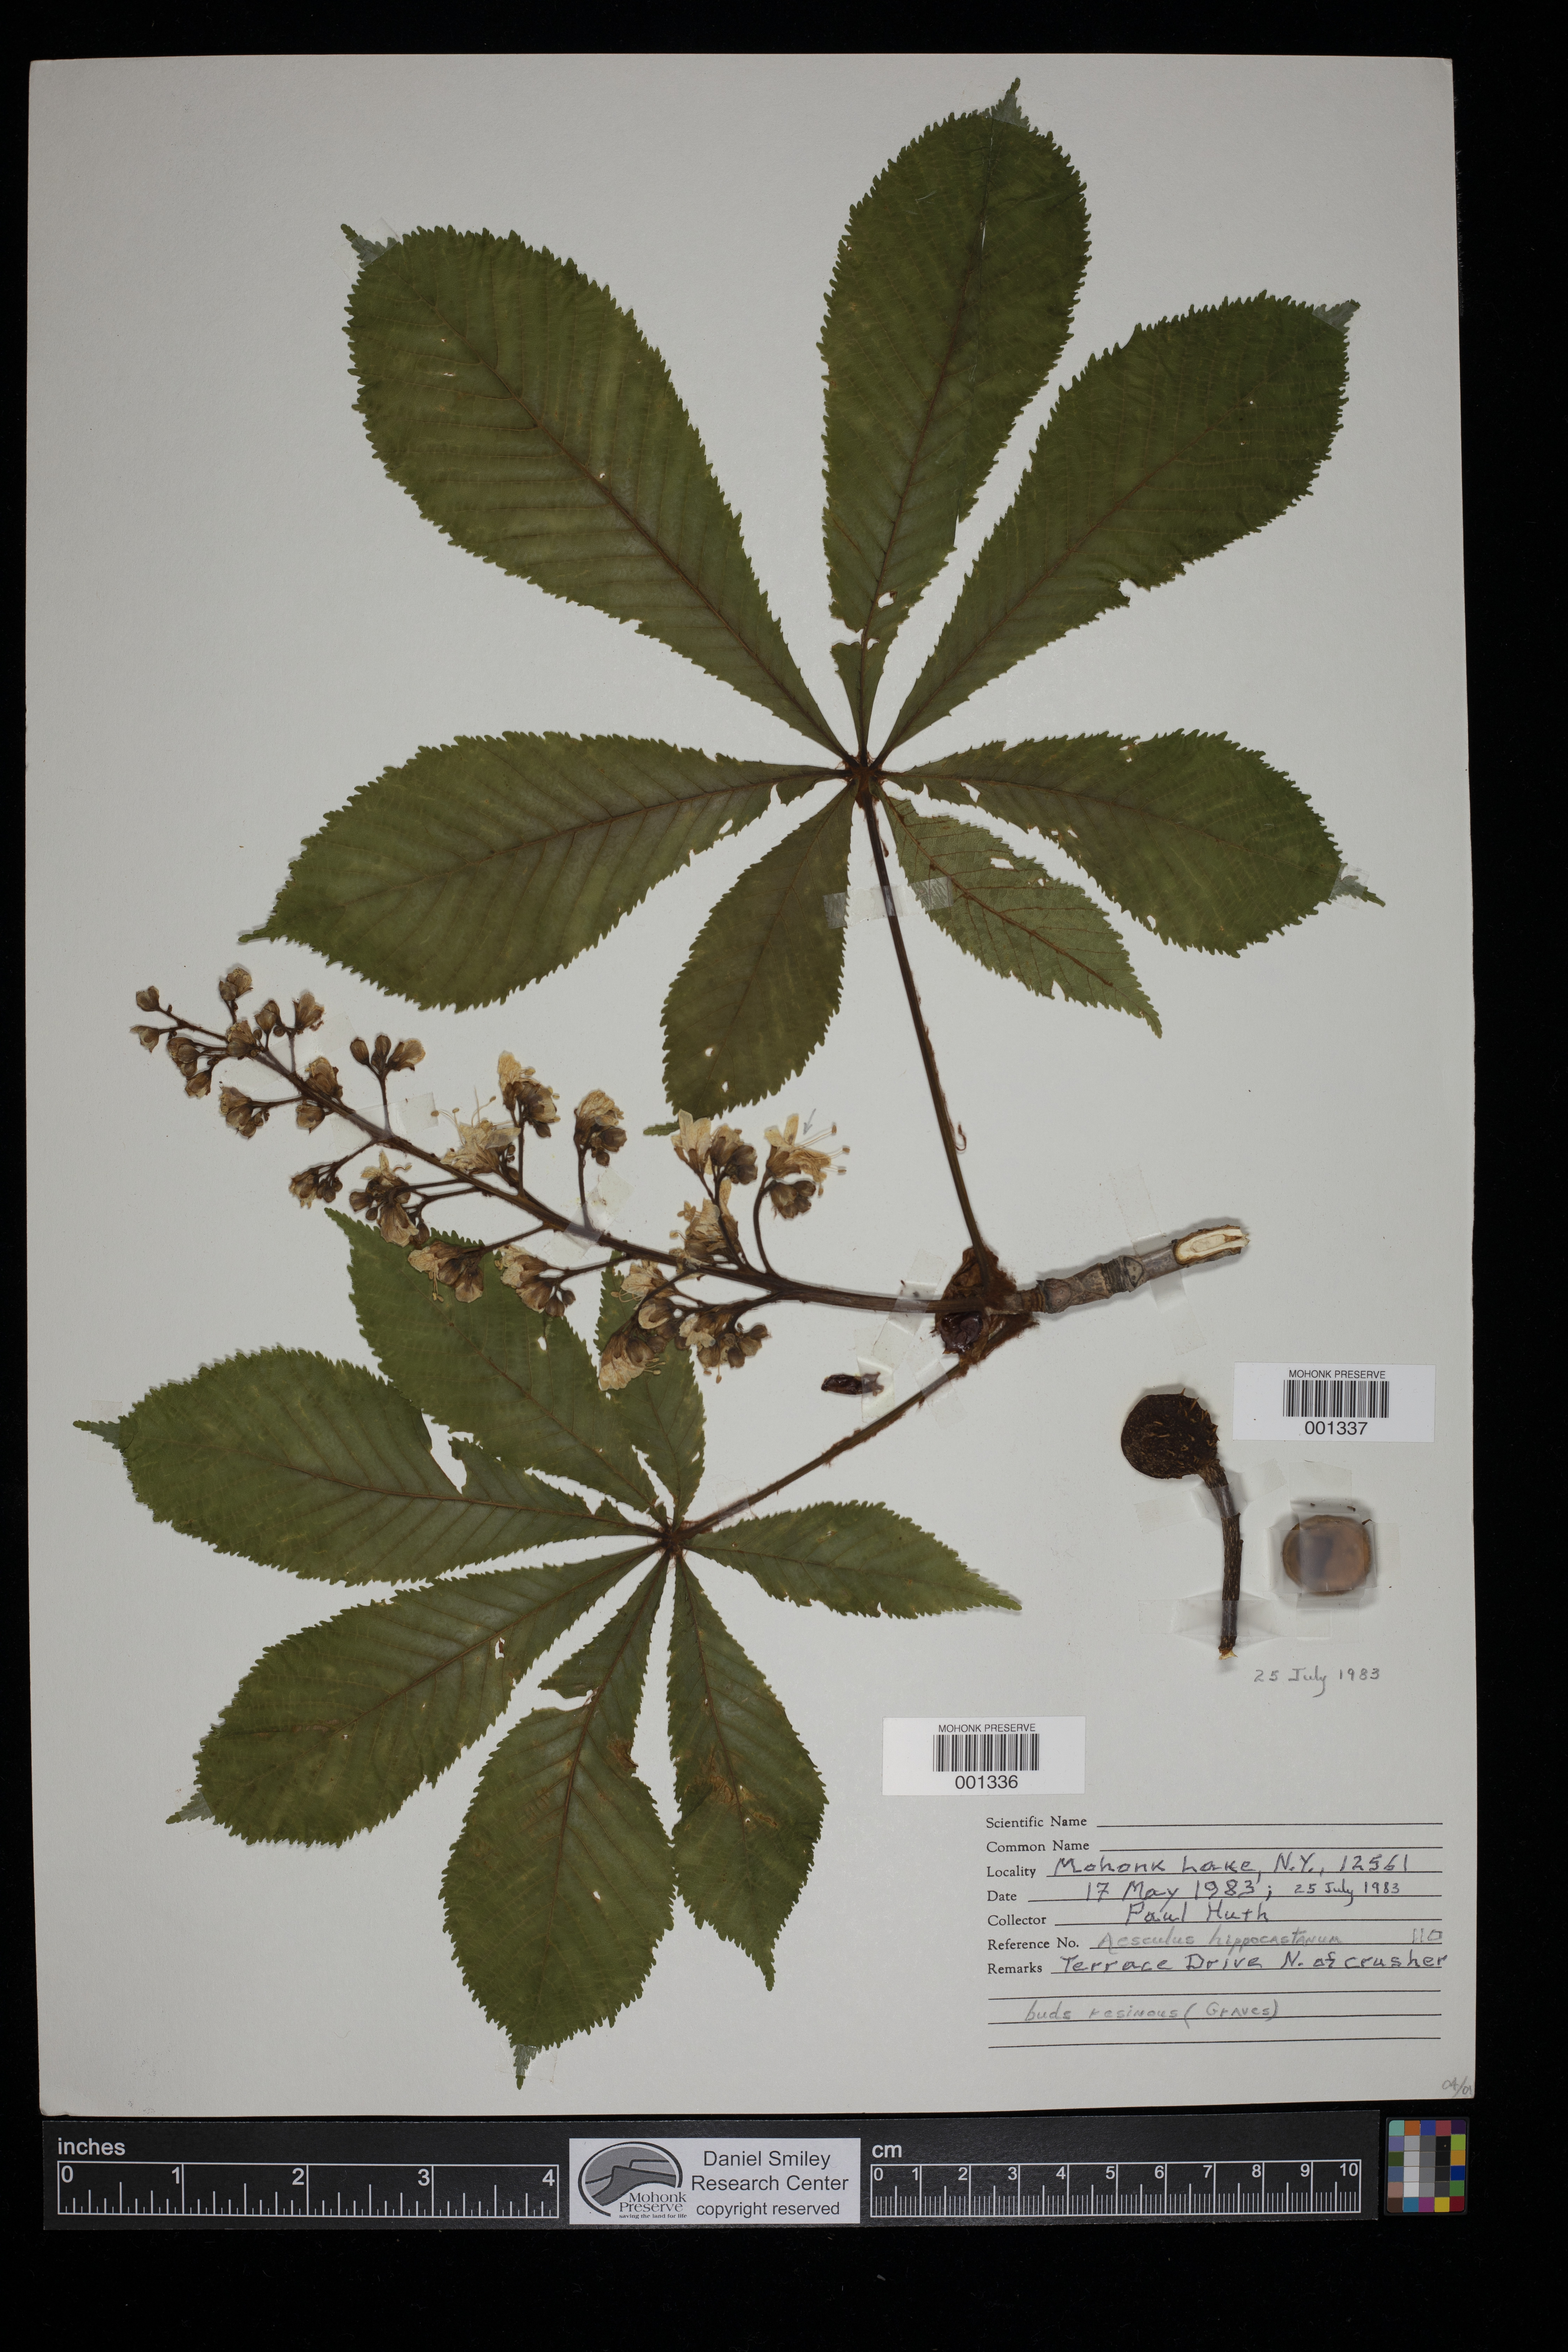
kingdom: Plantae
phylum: Tracheophyta
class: Magnoliopsida
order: Sapindales
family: Sapindaceae
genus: Aesculus
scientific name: Aesculus hippocastanum
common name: Horse-chestnut
